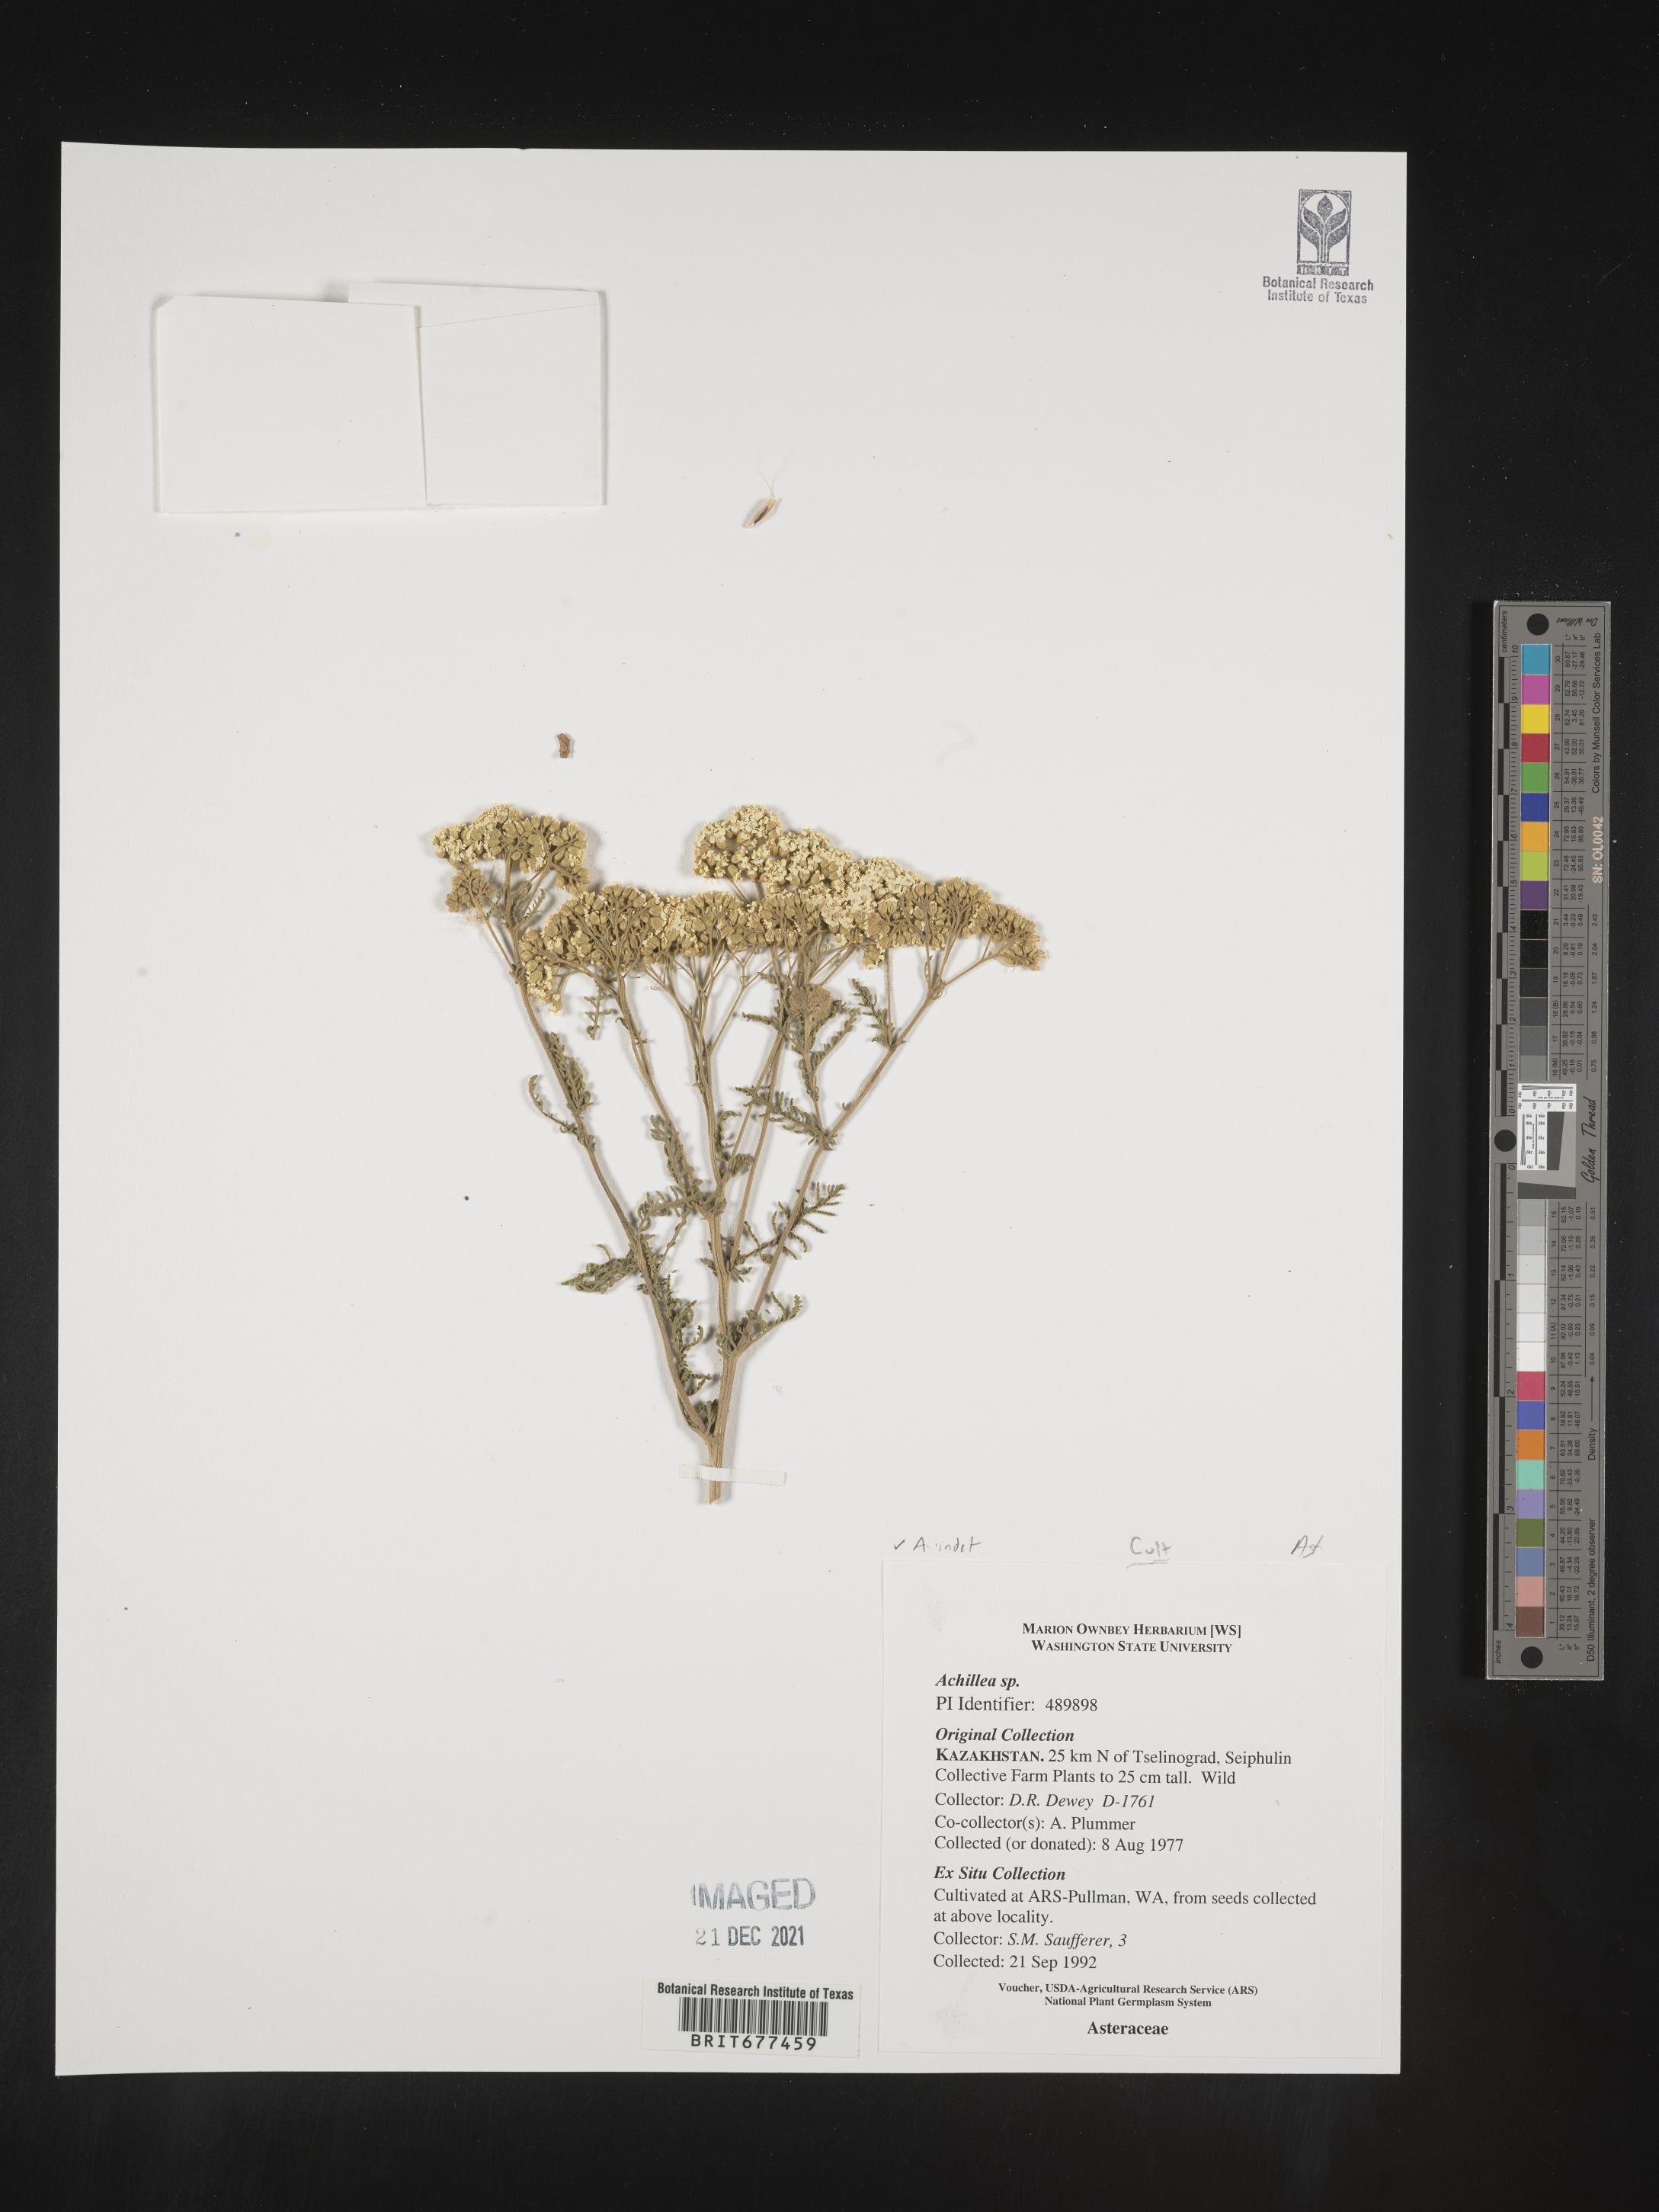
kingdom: Plantae
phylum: Tracheophyta
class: Magnoliopsida
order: Asterales
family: Asteraceae
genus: Achillea
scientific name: Achillea
